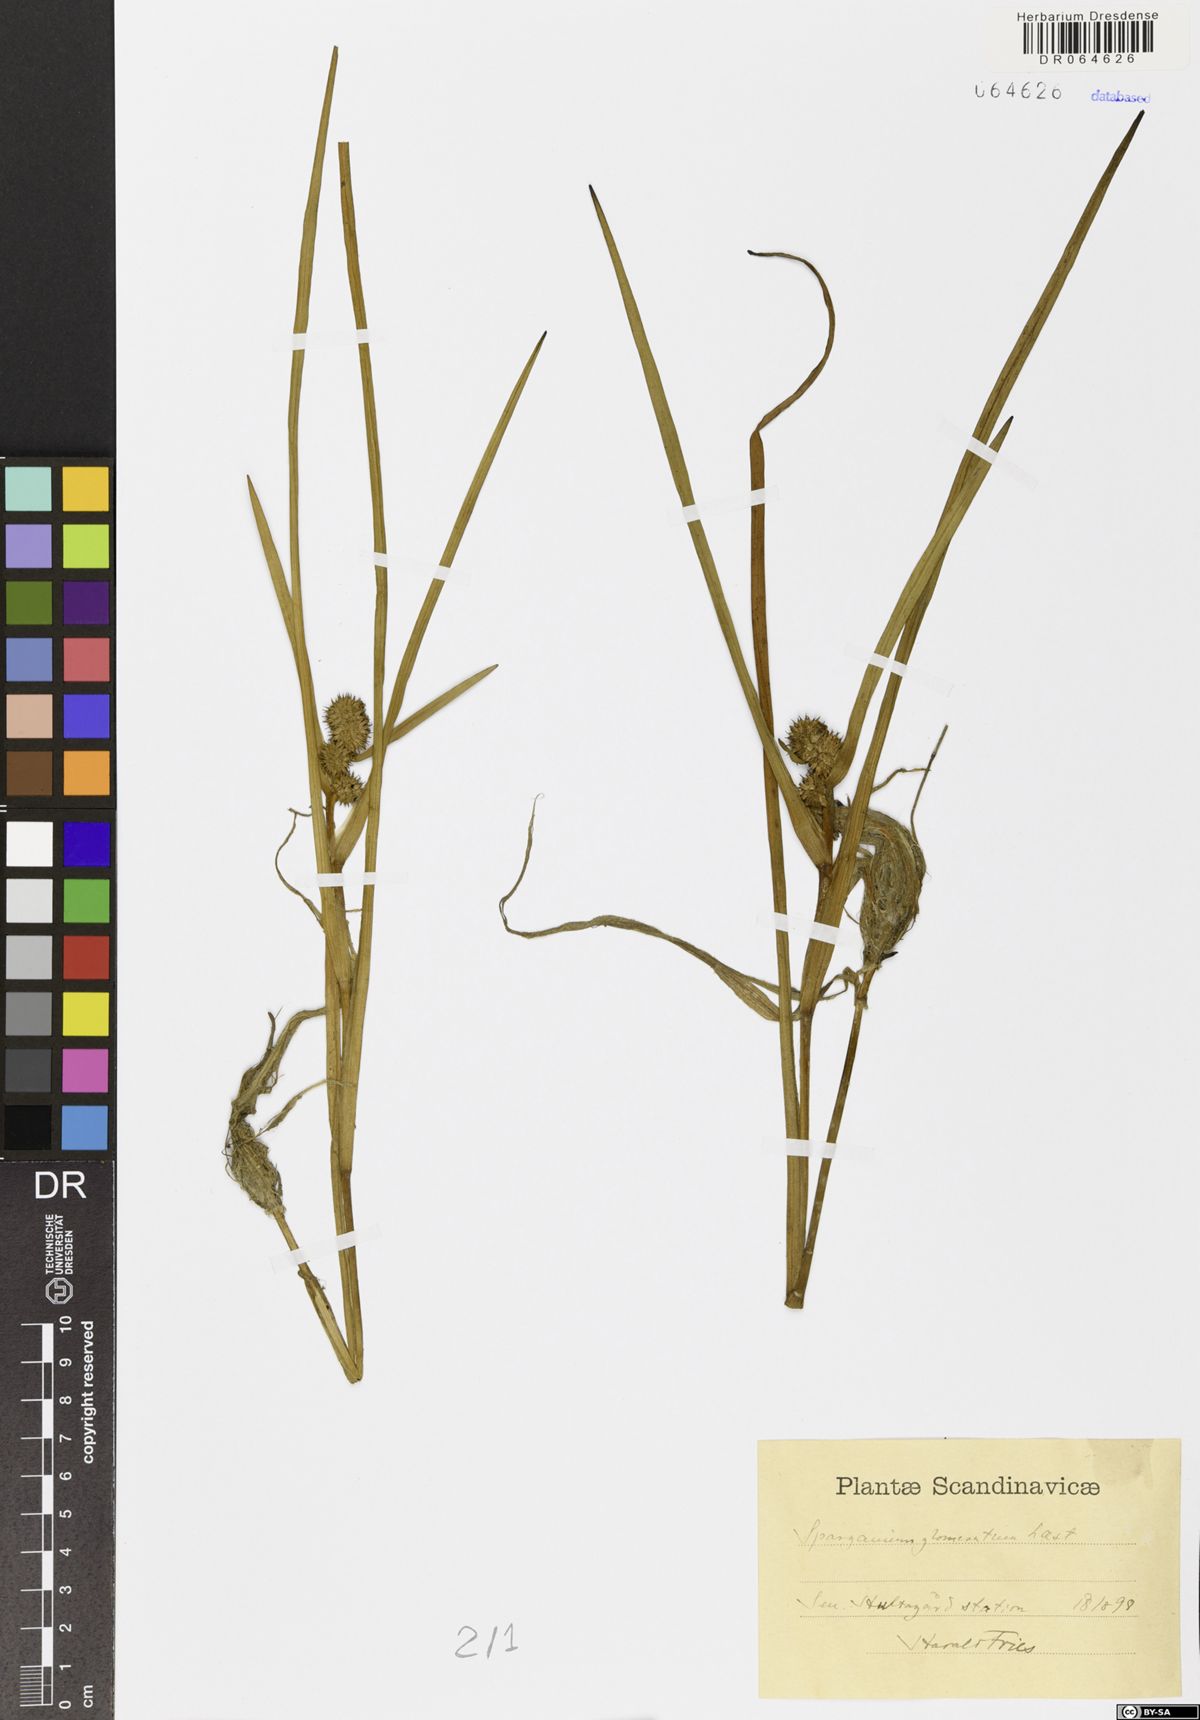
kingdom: Plantae
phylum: Tracheophyta
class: Liliopsida
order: Poales
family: Typhaceae
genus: Sparganium
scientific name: Sparganium glomeratum
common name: Clustered burreed
